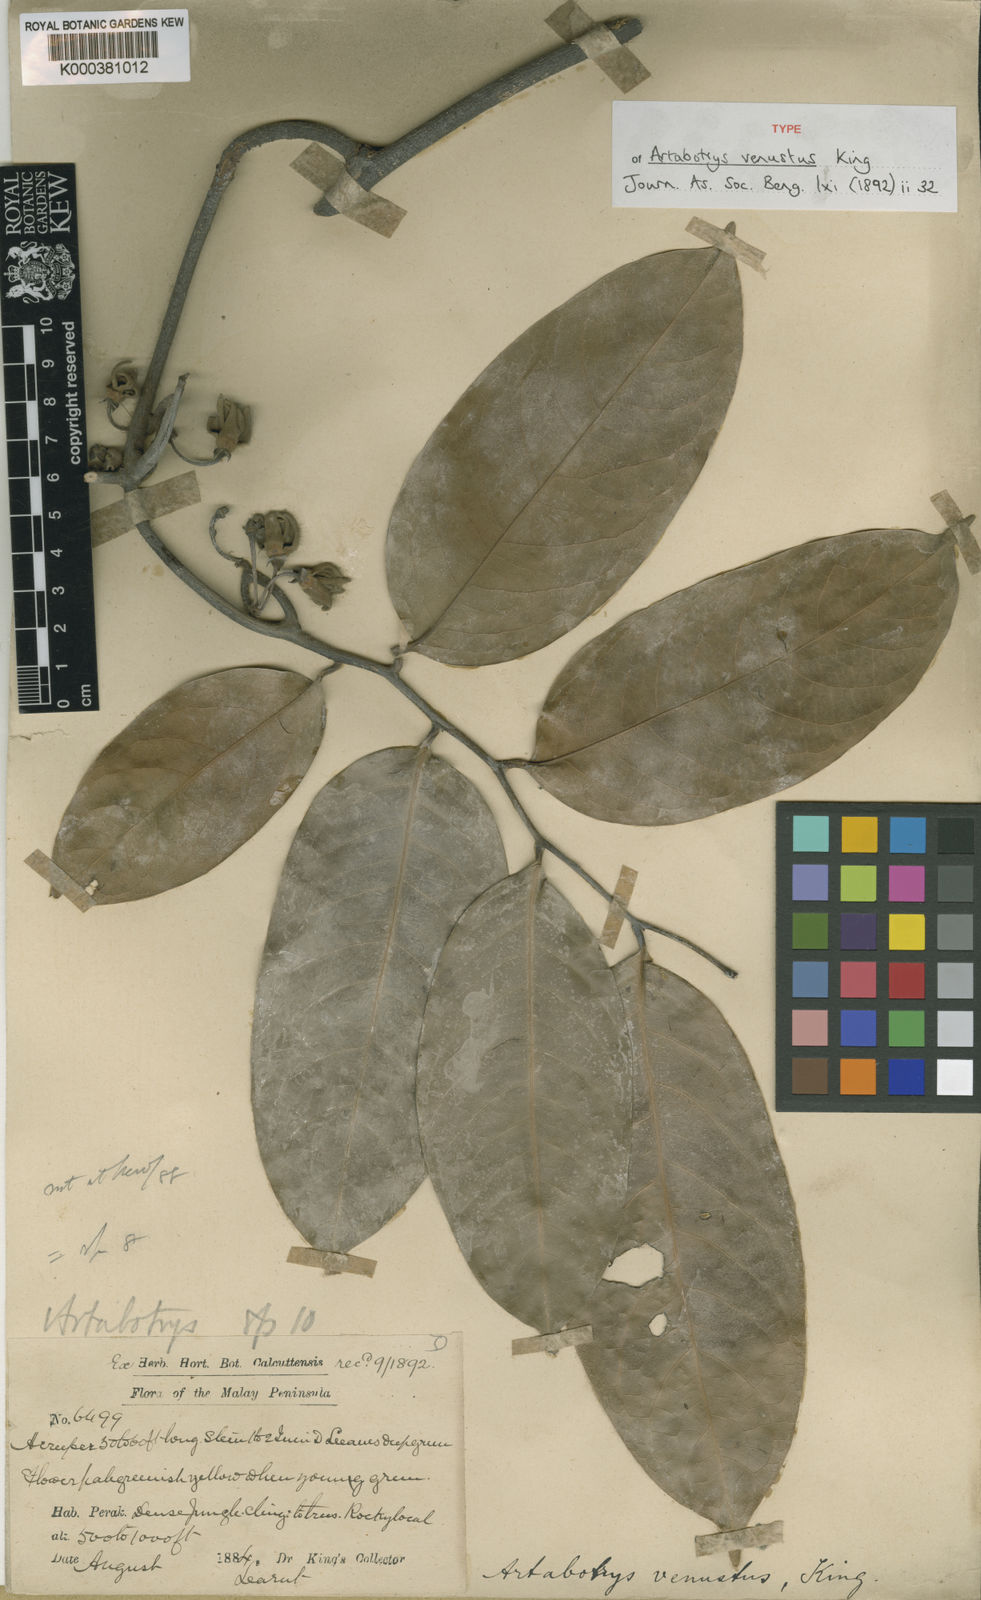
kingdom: Plantae
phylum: Tracheophyta
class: Magnoliopsida
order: Magnoliales
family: Annonaceae
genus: Artabotrys
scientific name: Artabotrys venustus
